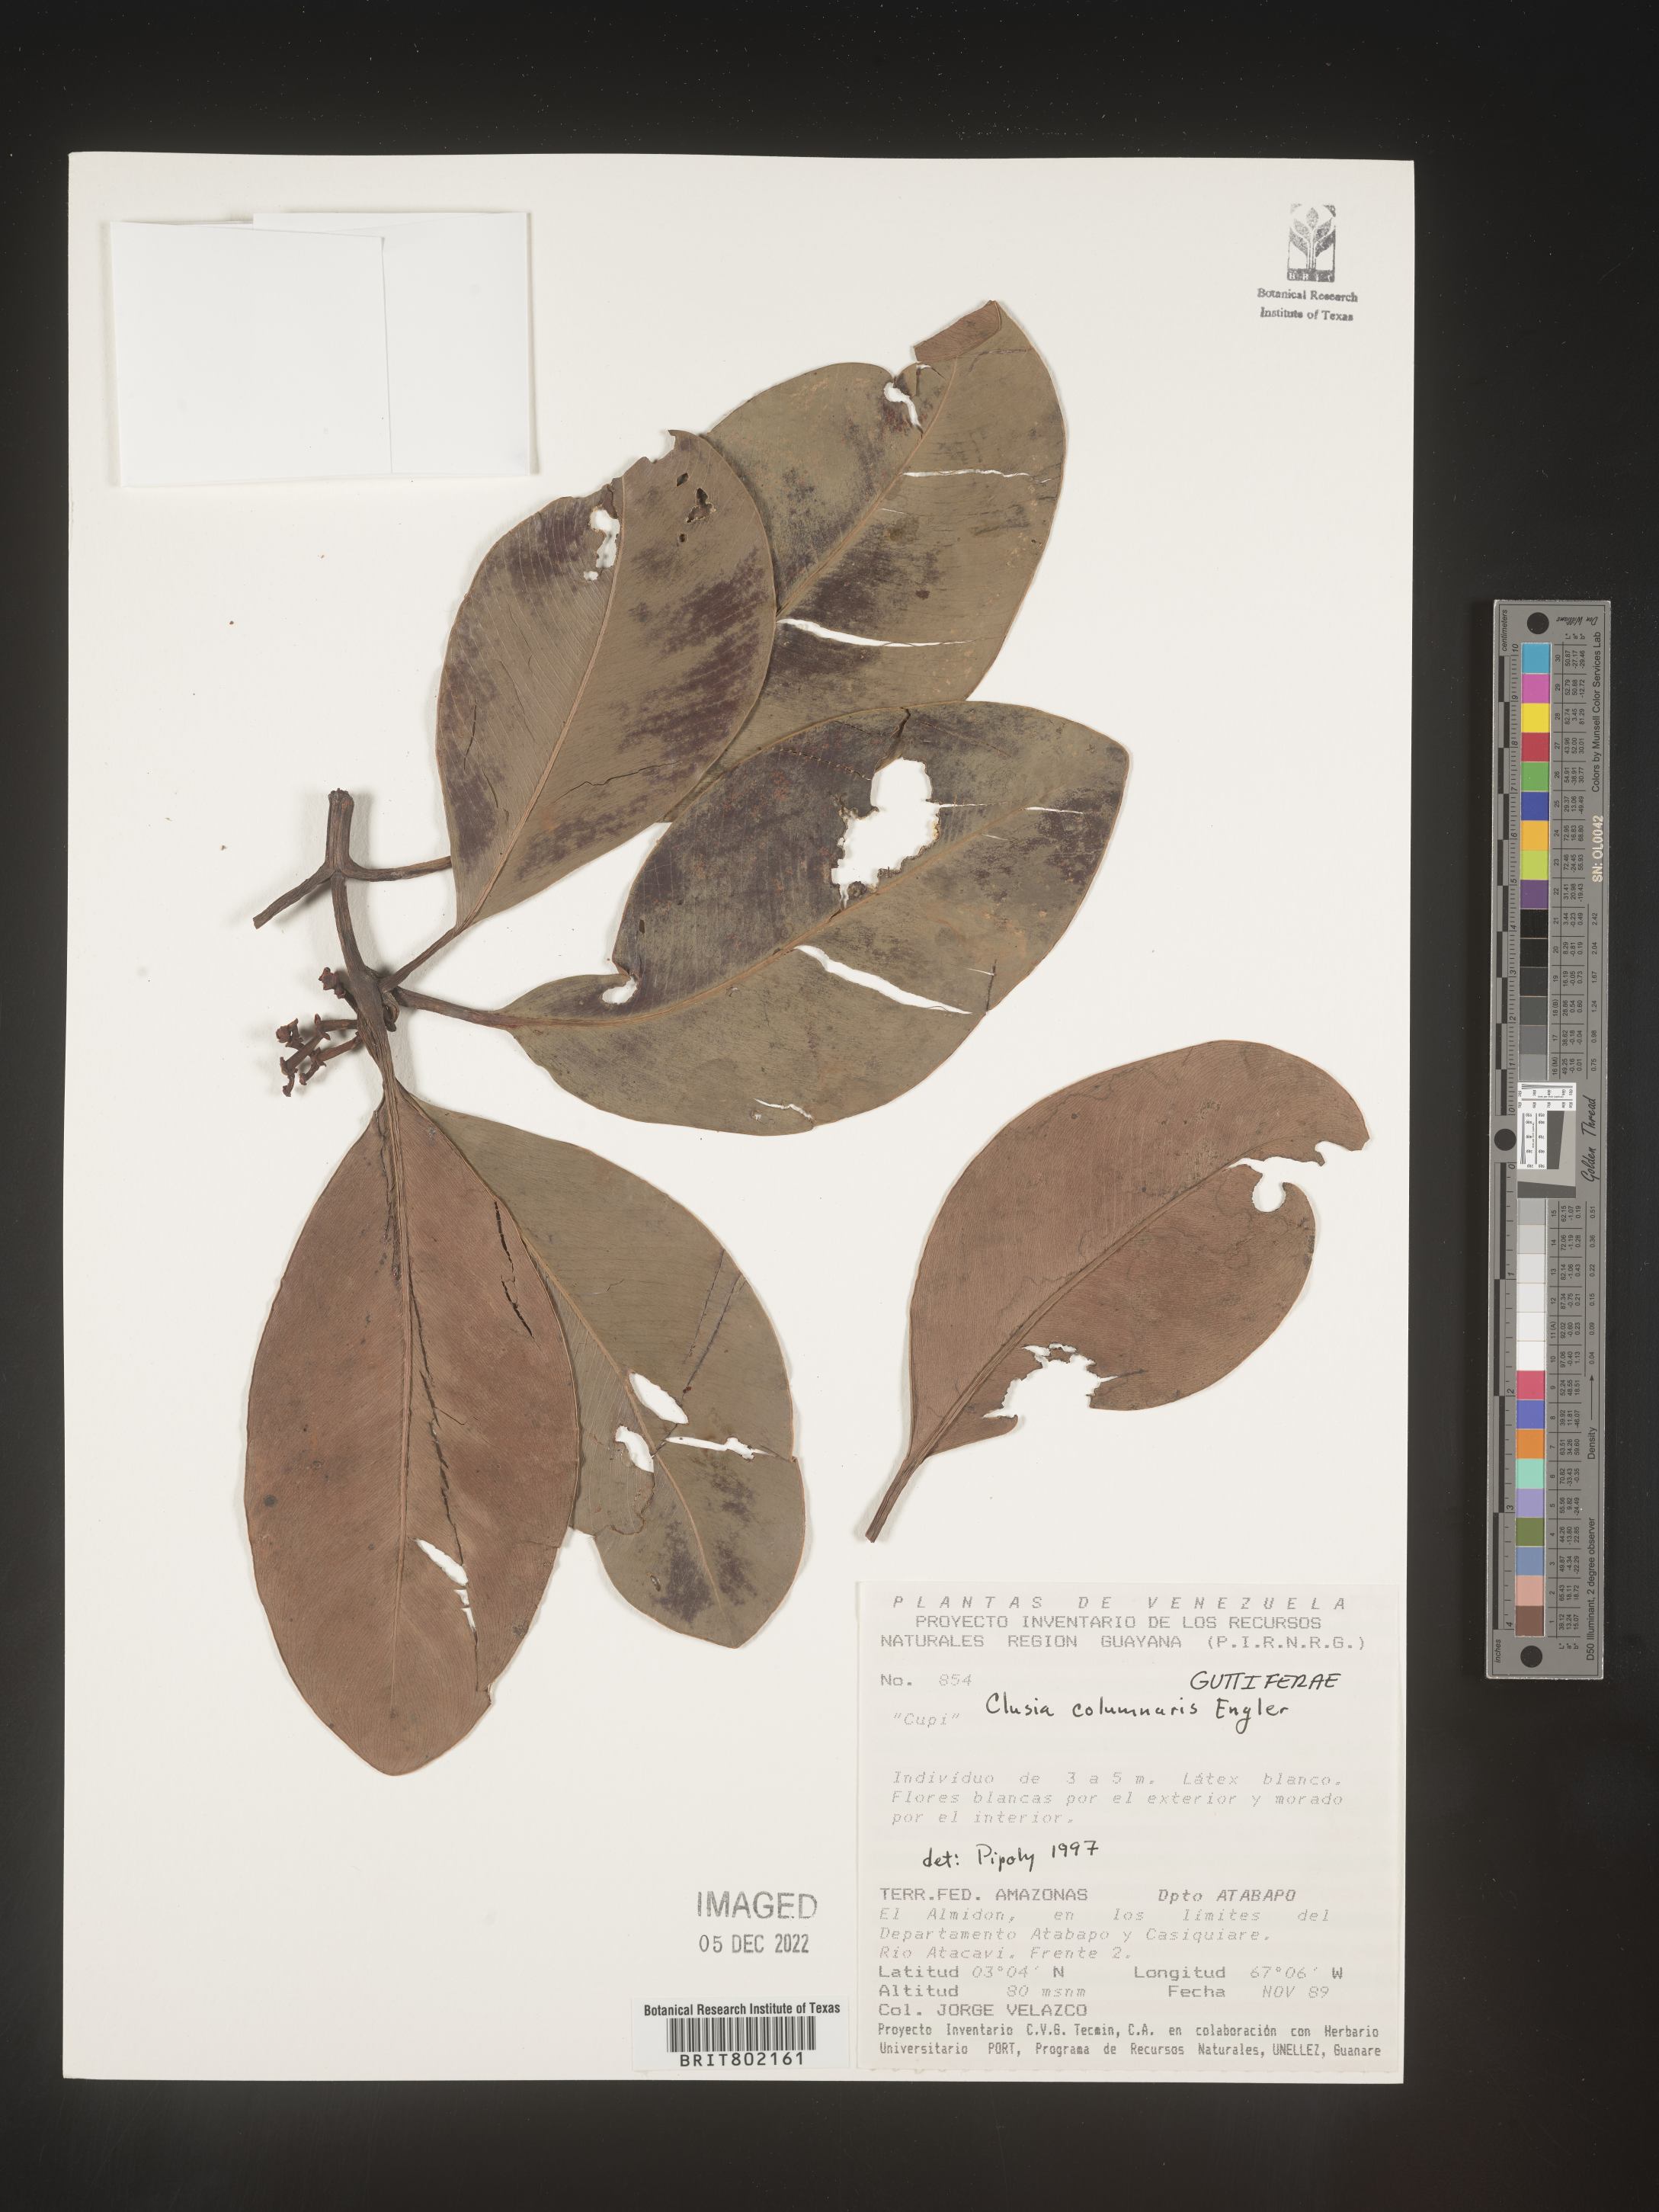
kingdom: Plantae
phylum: Tracheophyta
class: Magnoliopsida
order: Malpighiales
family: Clusiaceae
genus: Clusia
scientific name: Clusia columnaris
